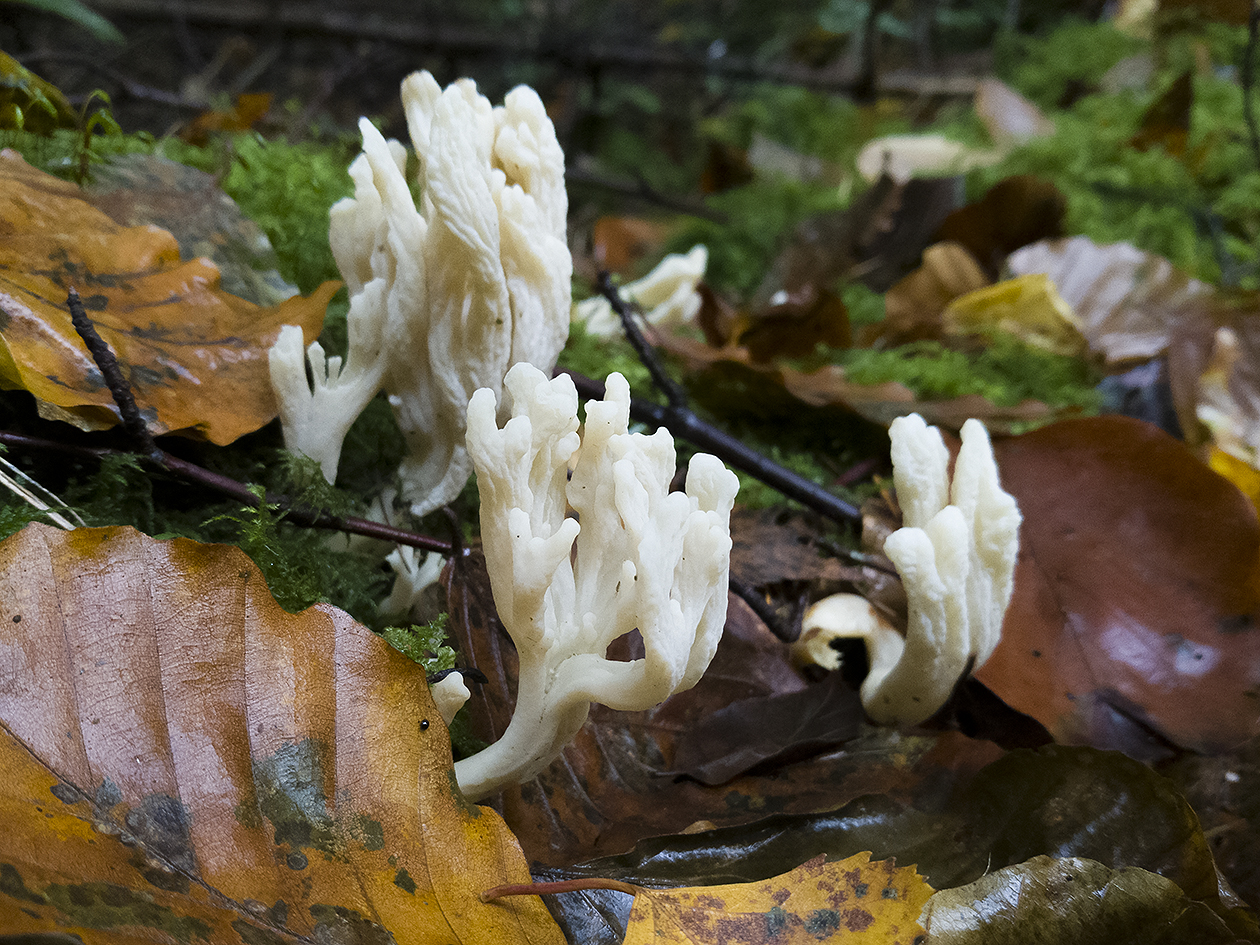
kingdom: Fungi
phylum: Basidiomycota
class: Agaricomycetes
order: Cantharellales
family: Hydnaceae
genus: Clavulina
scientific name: Clavulina
